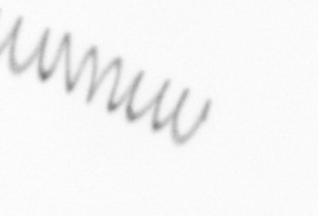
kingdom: Chromista
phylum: Ochrophyta
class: Bacillariophyceae
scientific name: Bacillariophyceae
